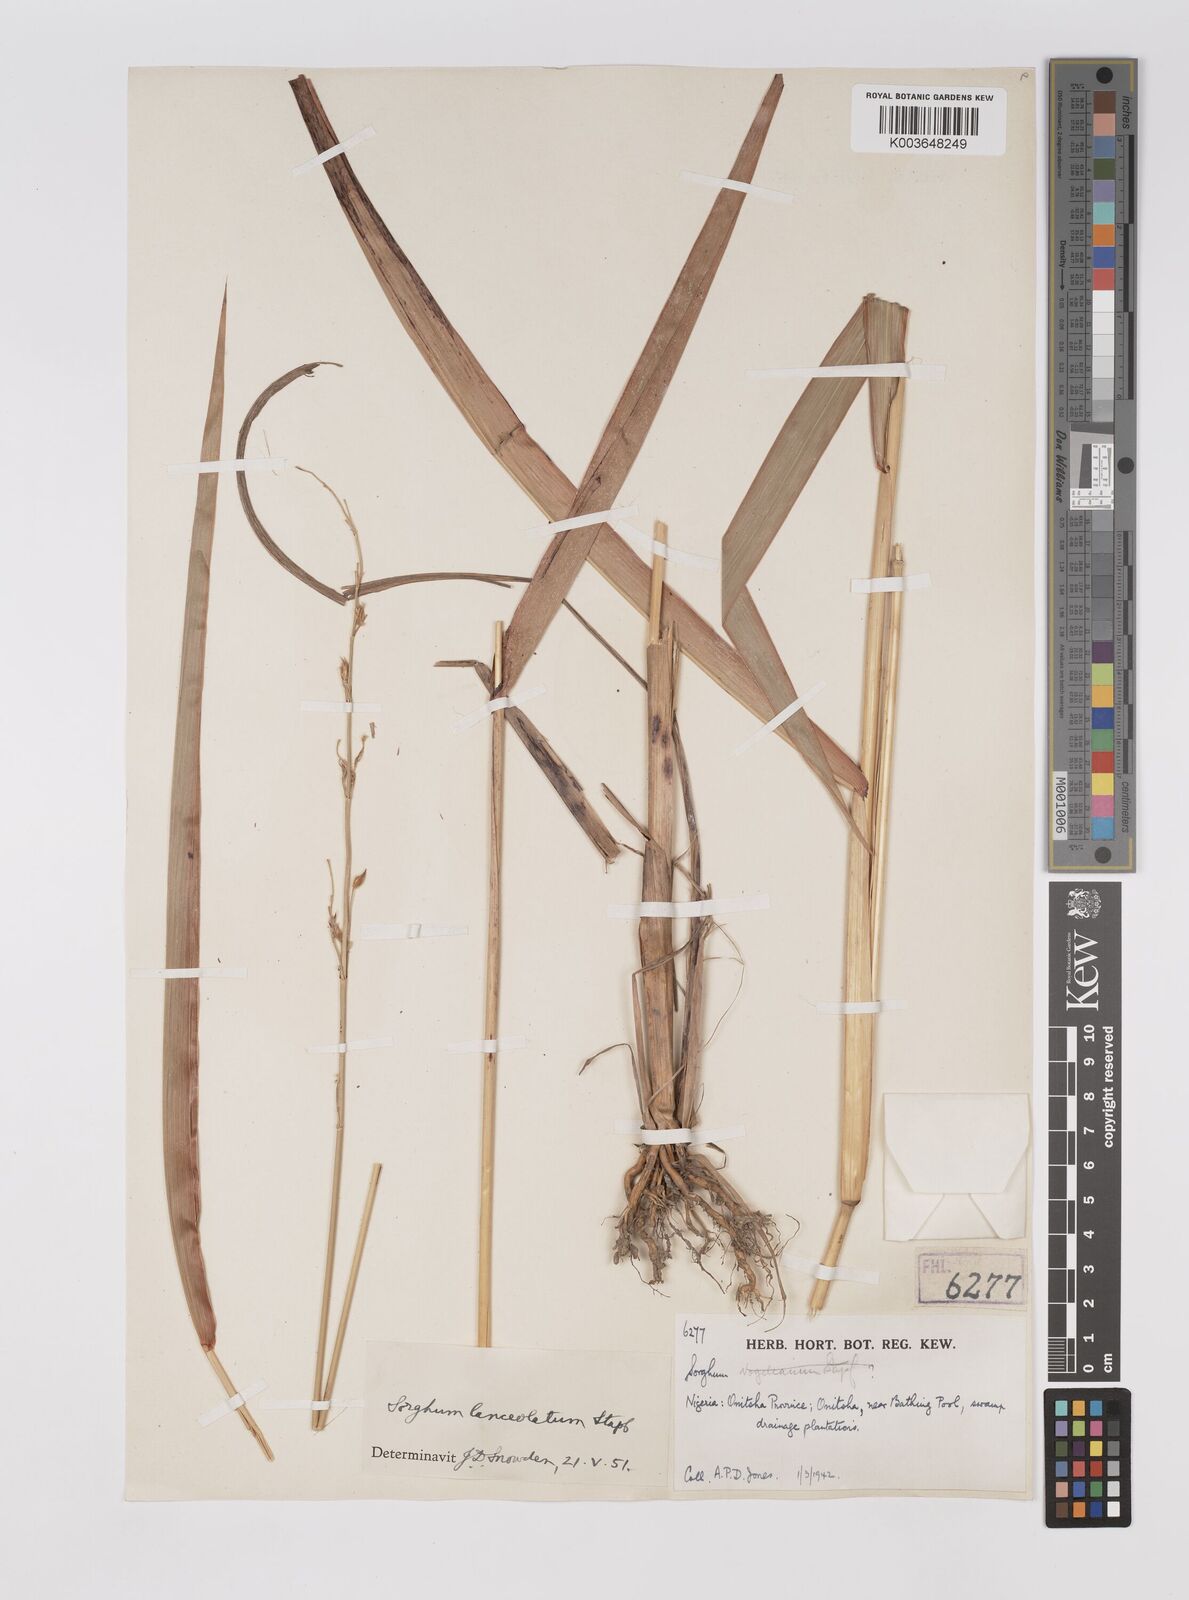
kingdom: Plantae
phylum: Tracheophyta
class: Liliopsida
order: Poales
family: Poaceae
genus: Sorghum
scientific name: Sorghum arundinaceum
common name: Sorghum
